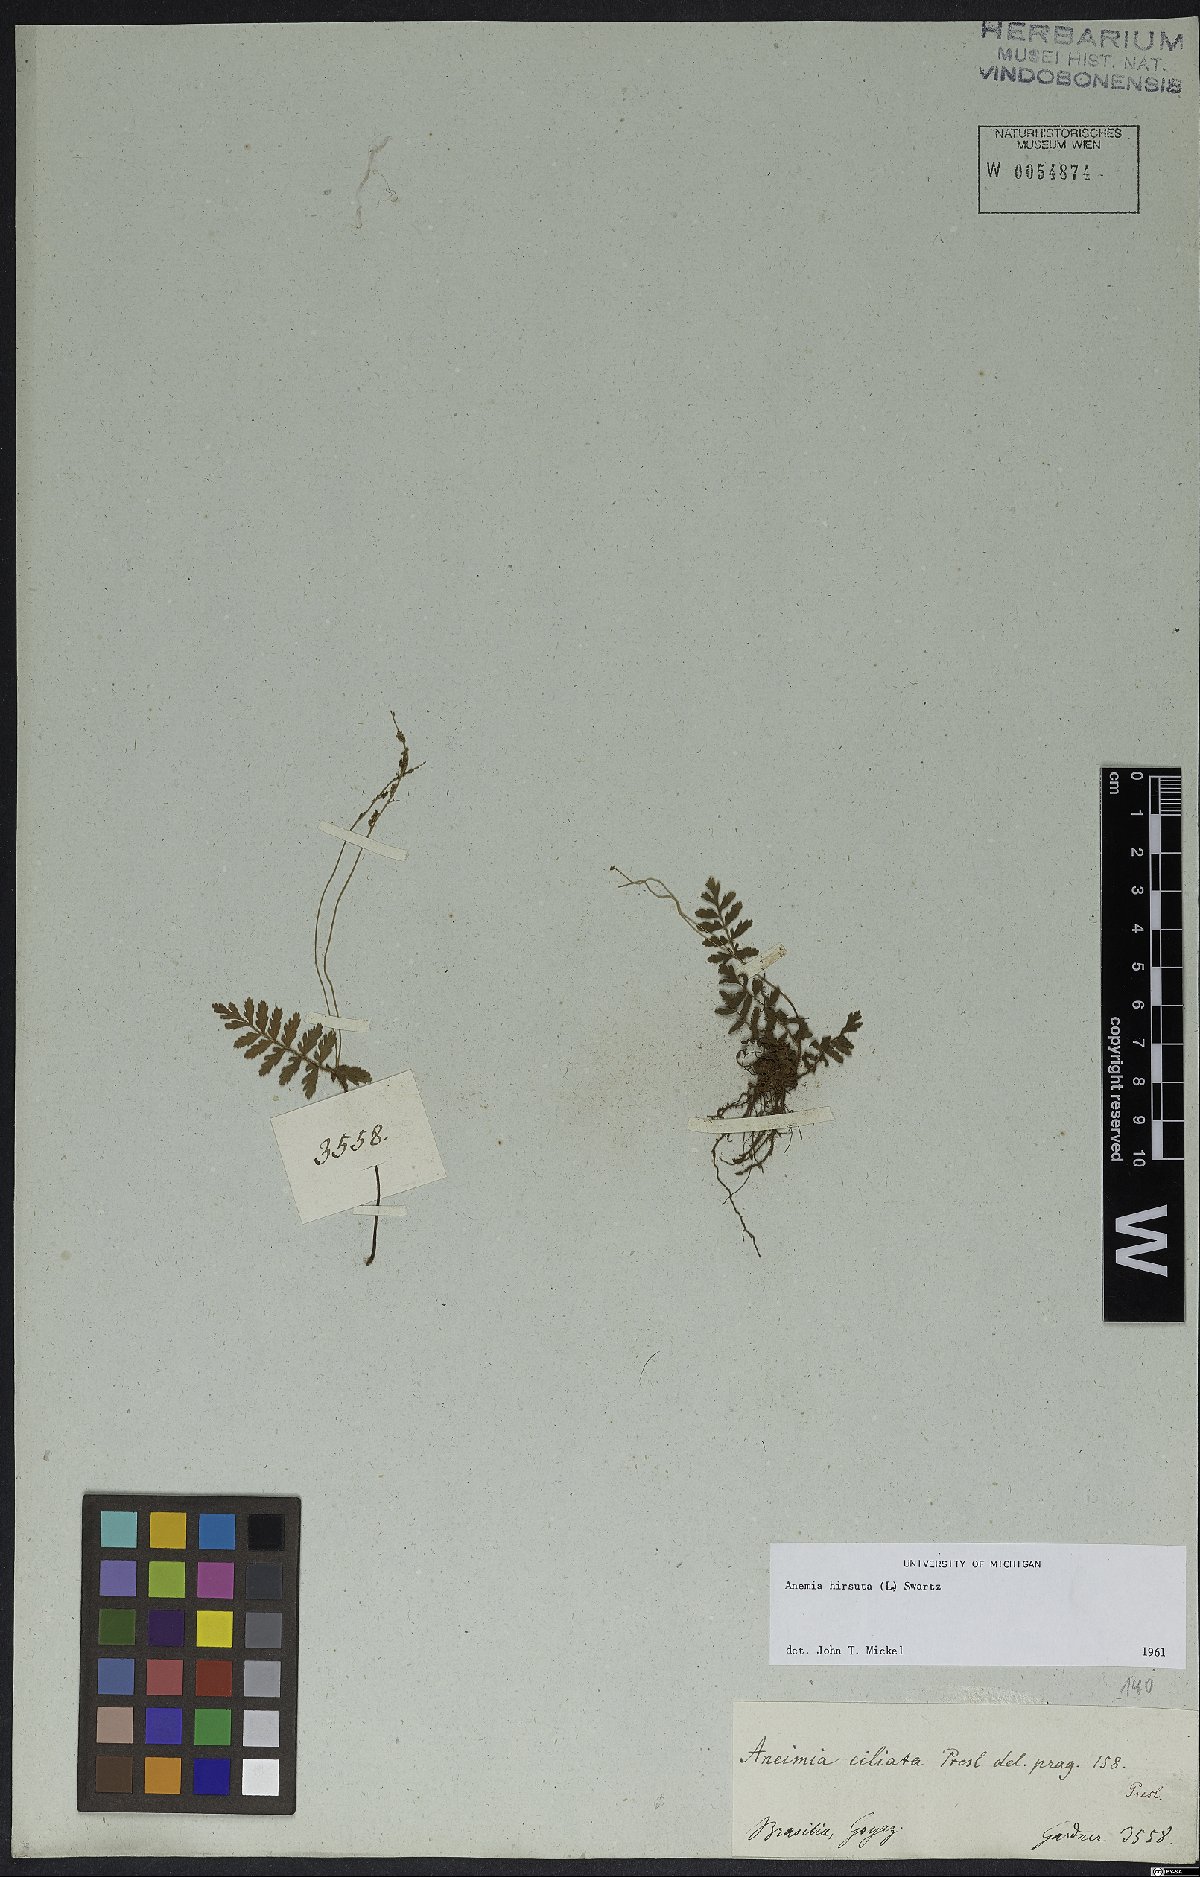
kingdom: Plantae
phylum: Tracheophyta
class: Polypodiopsida
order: Schizaeales
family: Anemiaceae
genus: Anemia
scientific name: Anemia hirsuta
